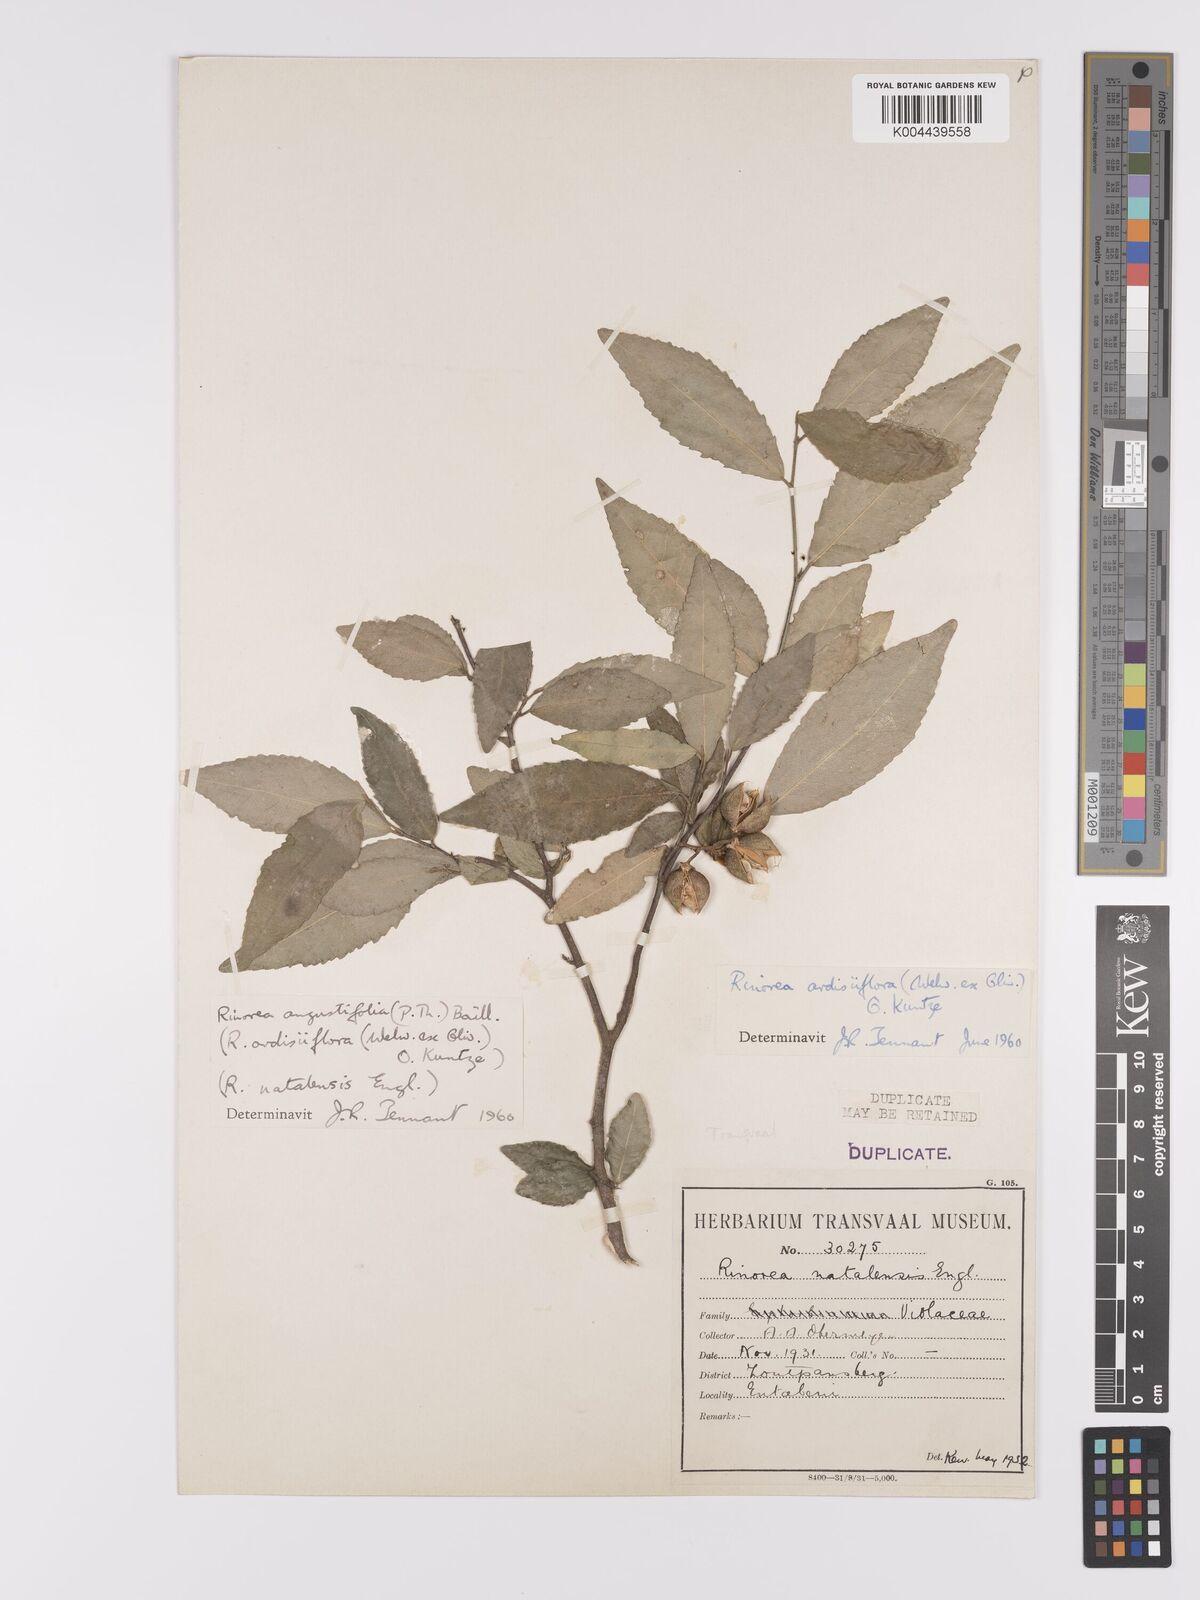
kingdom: Plantae
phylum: Tracheophyta
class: Magnoliopsida
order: Malpighiales
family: Violaceae
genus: Rinorea
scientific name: Rinorea angustifolia
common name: White violet-bush
